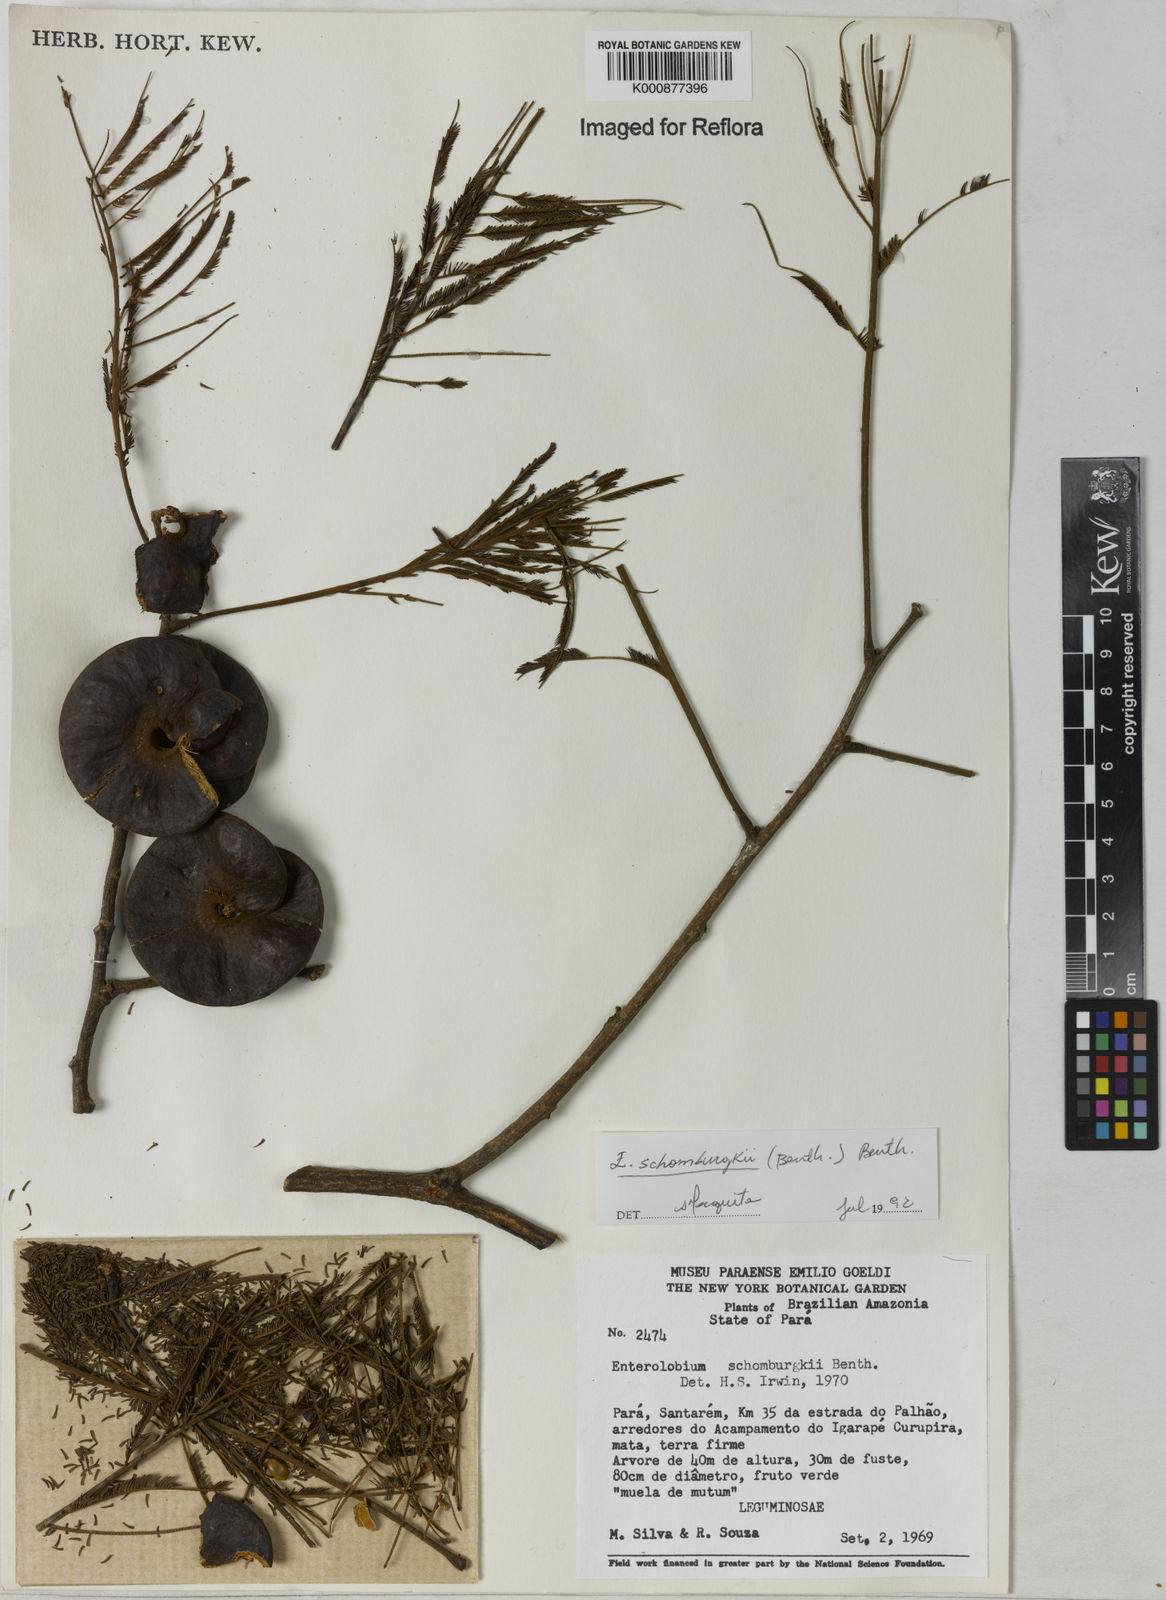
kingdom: Plantae
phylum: Tracheophyta
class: Magnoliopsida
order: Fabales
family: Fabaceae
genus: Enterolobium
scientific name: Enterolobium schomburgkii
